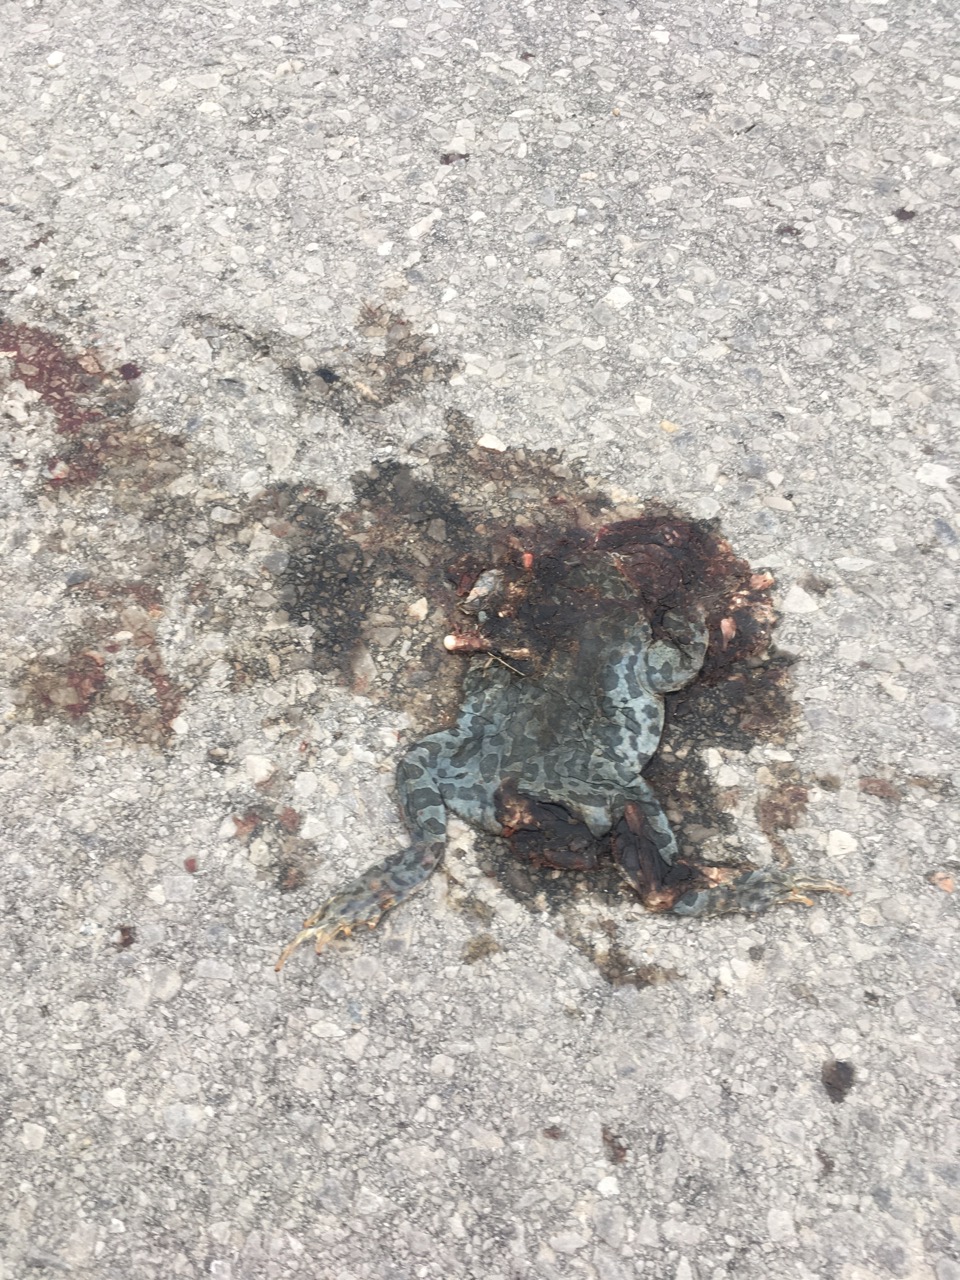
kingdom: Animalia
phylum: Chordata
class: Amphibia
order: Anura
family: Bufonidae
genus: Bufotes
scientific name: Bufotes viridis
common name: European green toad
